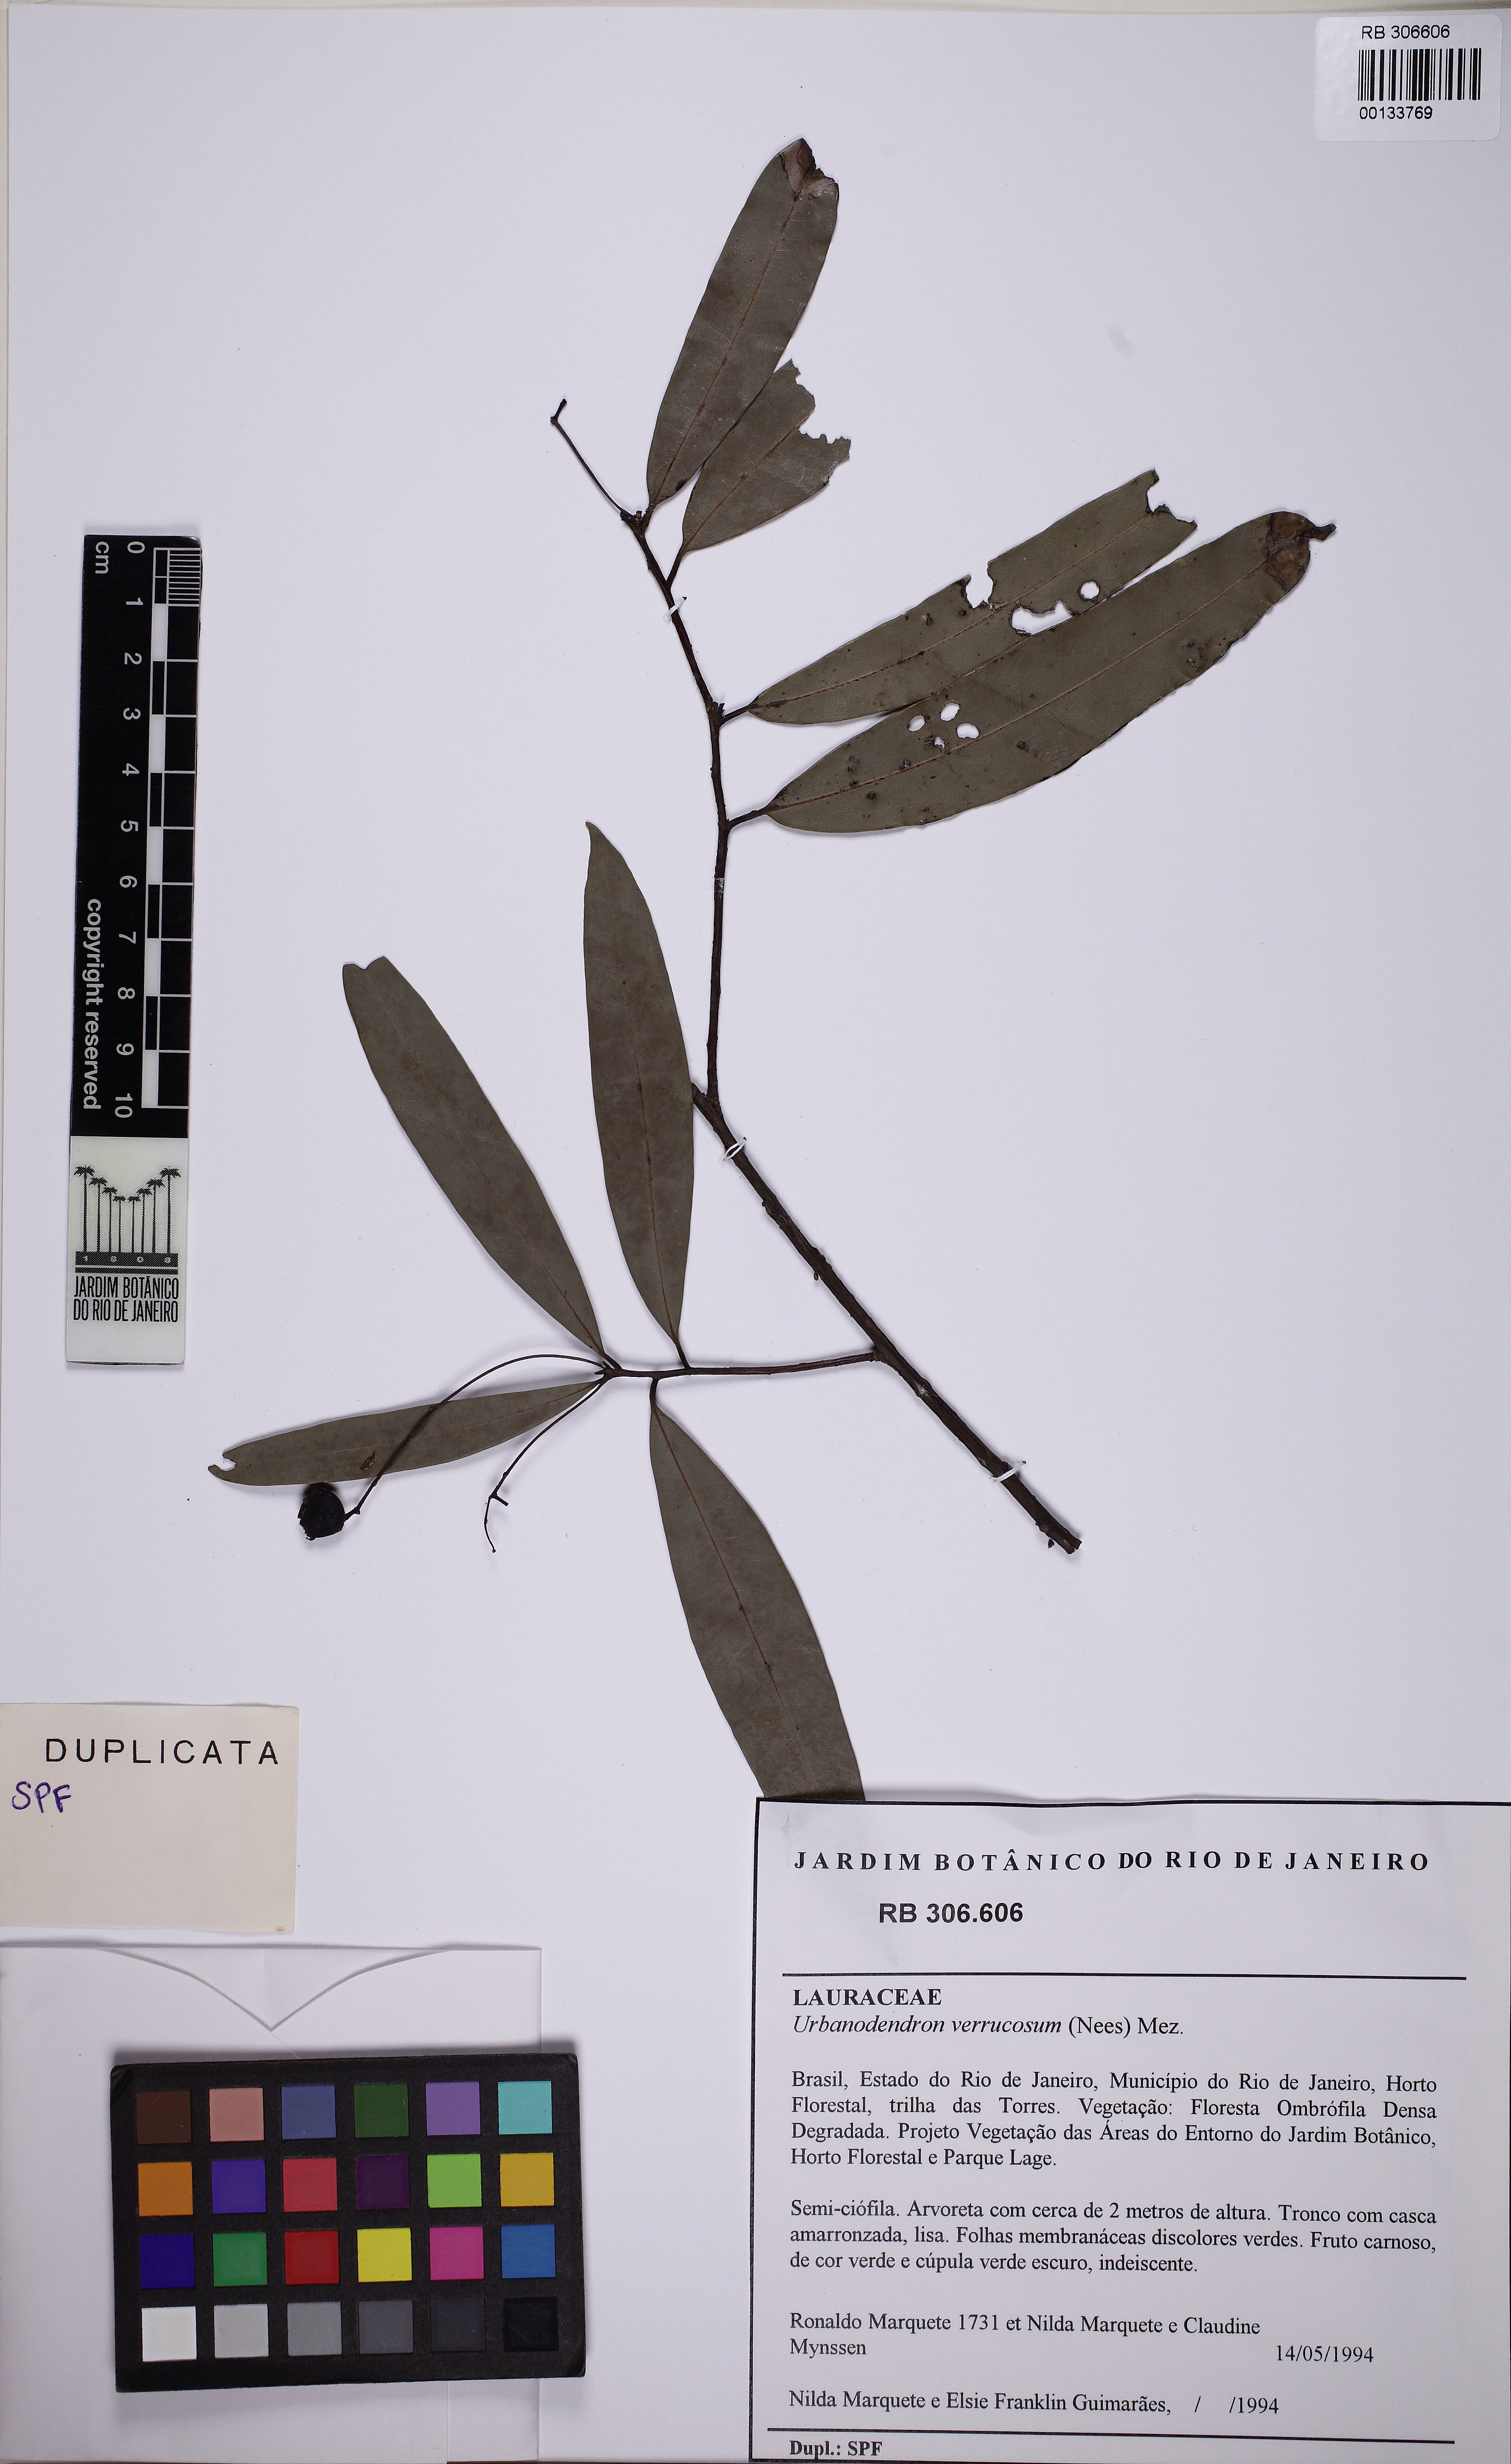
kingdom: Plantae
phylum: Tracheophyta
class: Magnoliopsida
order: Laurales
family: Lauraceae
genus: Urbanodendron
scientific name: Urbanodendron verrucosum
